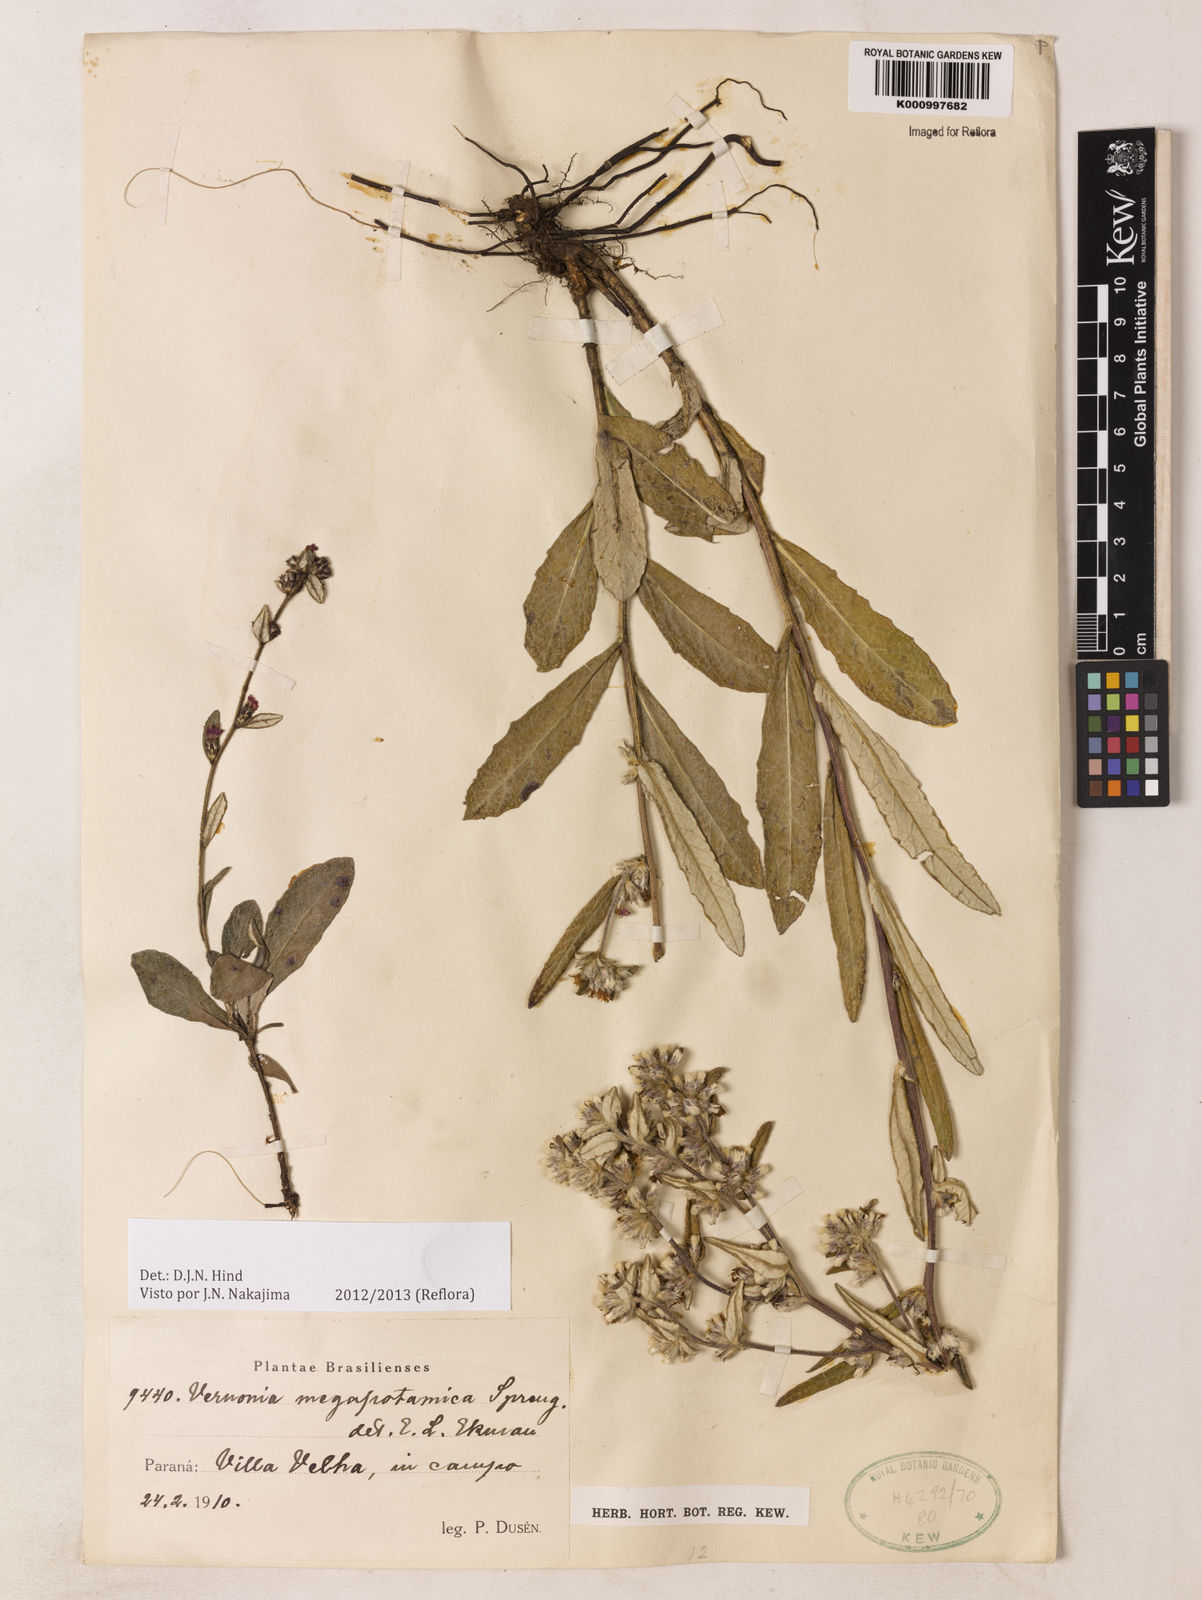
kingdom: Plantae
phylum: Tracheophyta
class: Magnoliopsida
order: Asterales
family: Asteraceae
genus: Stenocephalum
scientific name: Stenocephalum megapotamicum
